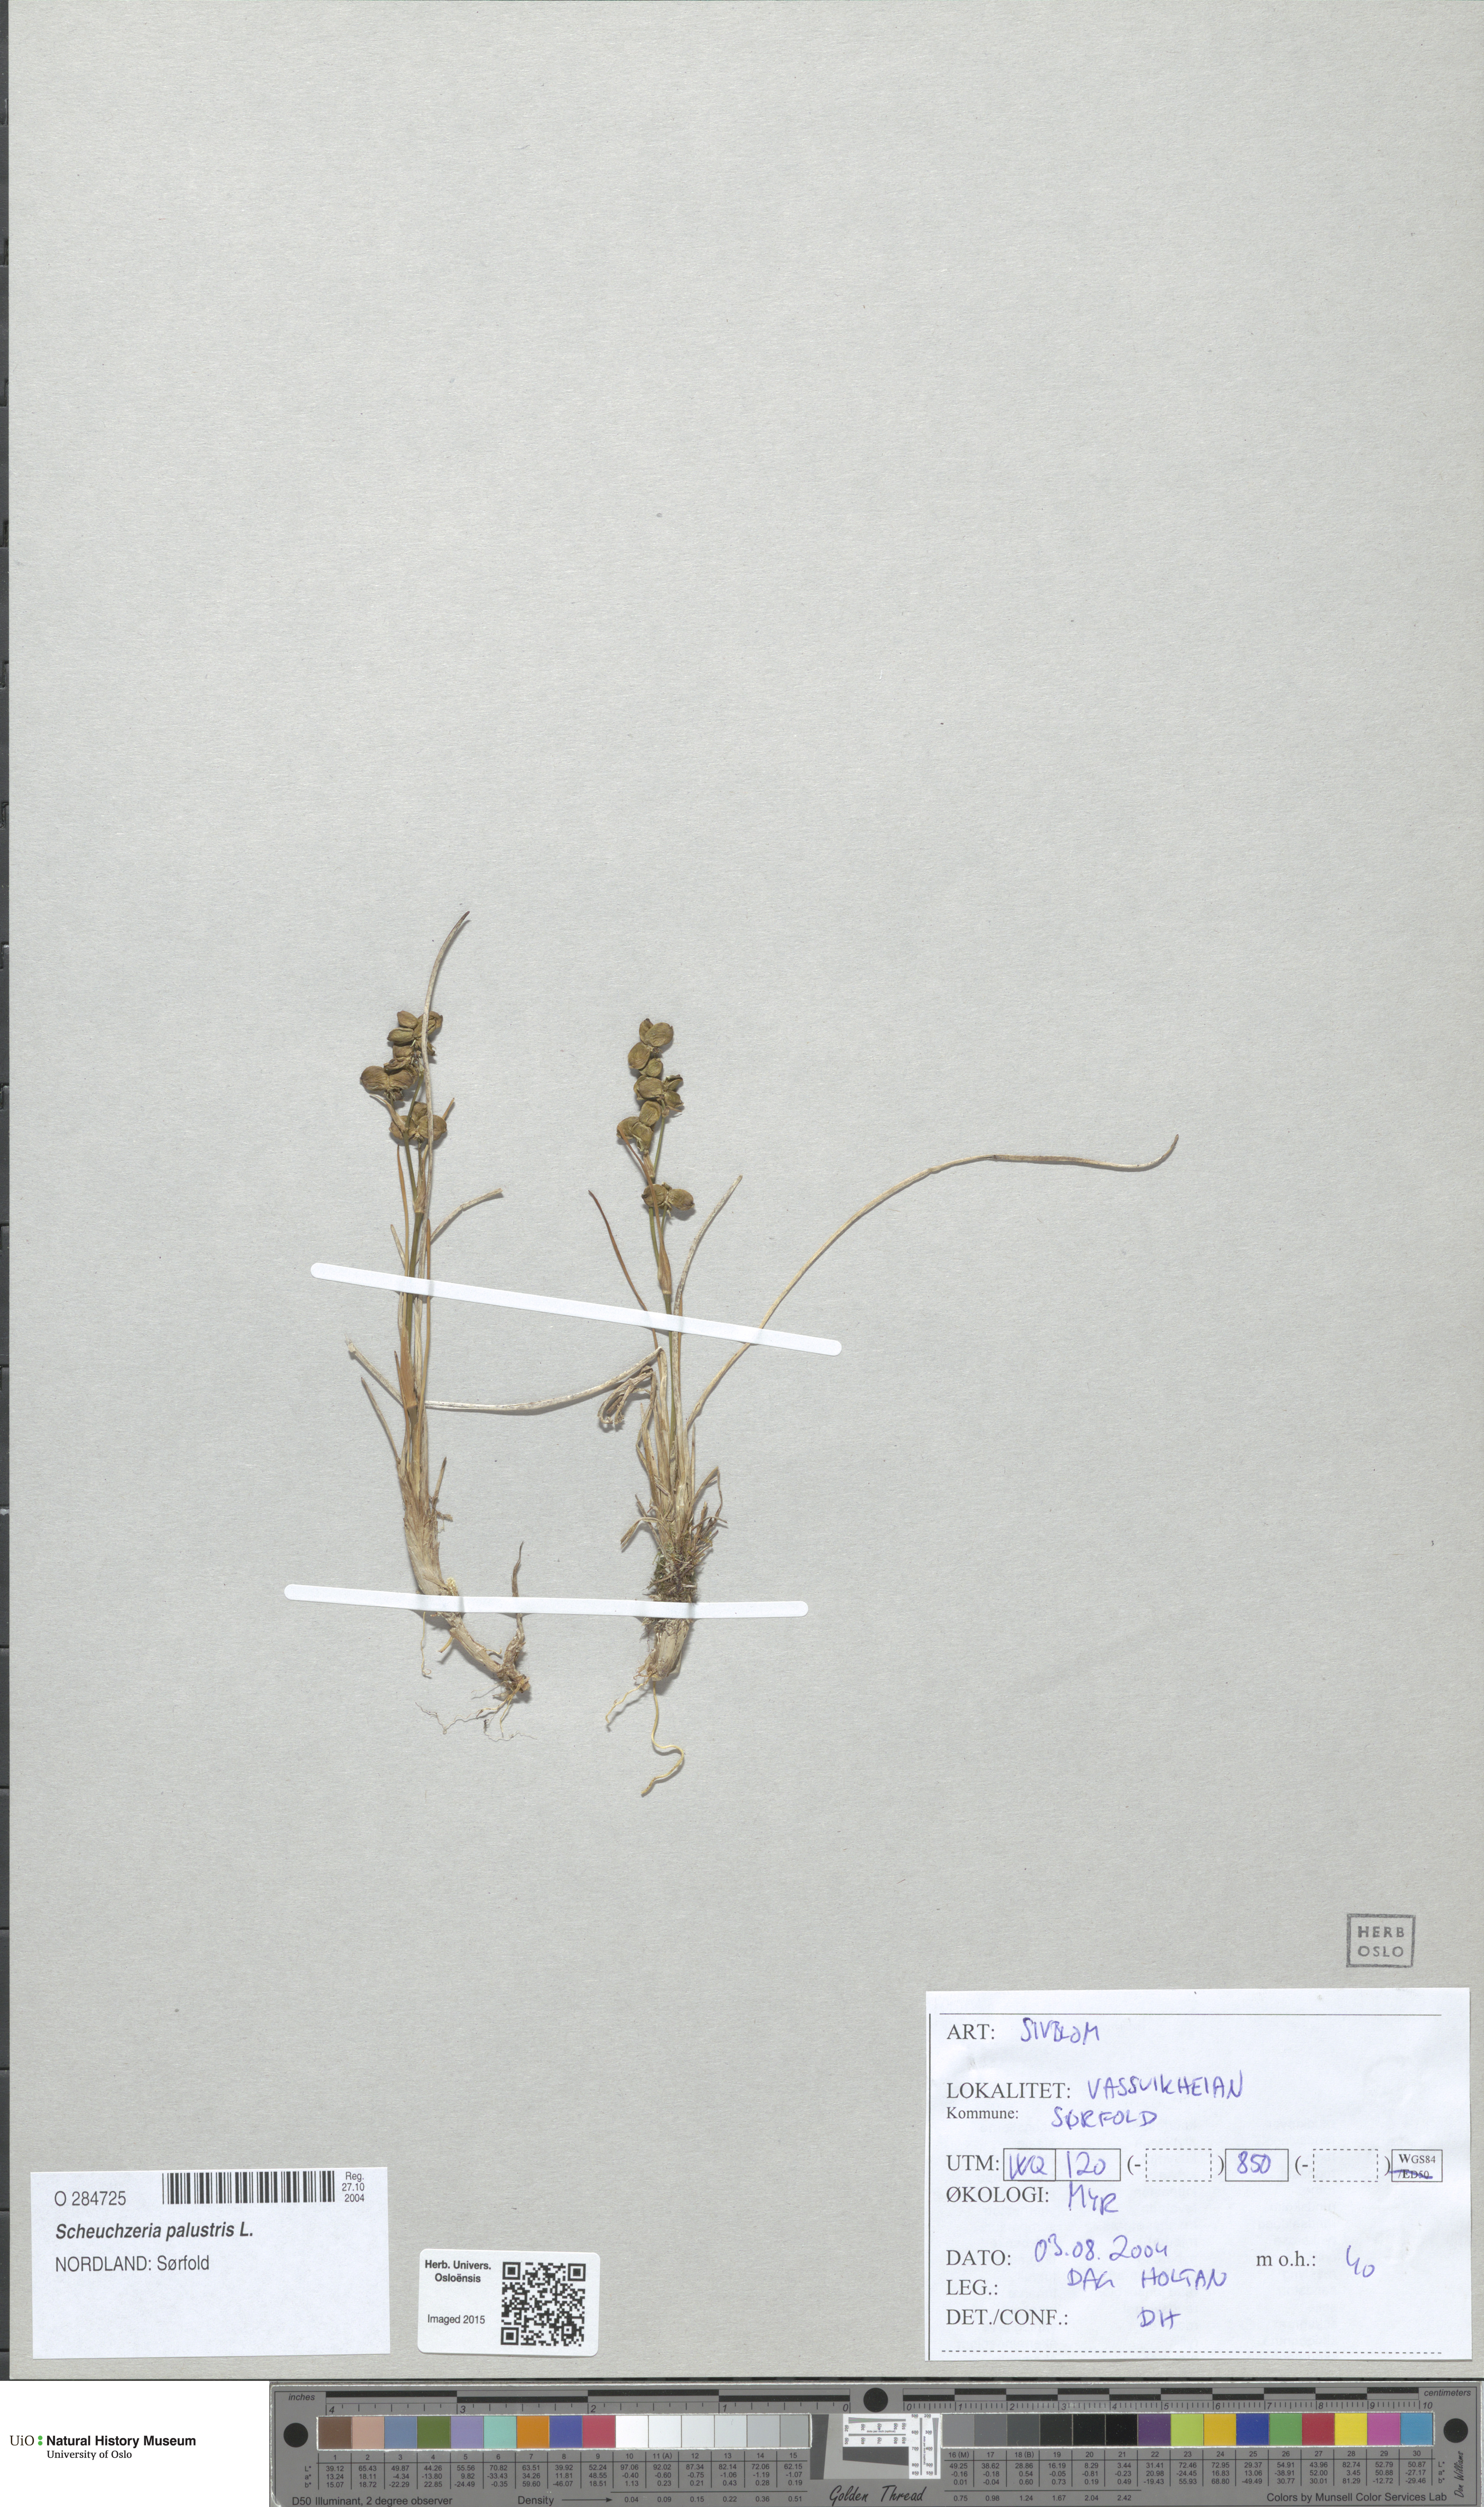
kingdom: Plantae
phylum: Tracheophyta
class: Liliopsida
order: Alismatales
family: Scheuchzeriaceae
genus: Scheuchzeria
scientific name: Scheuchzeria palustris
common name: Rannoch-rush
